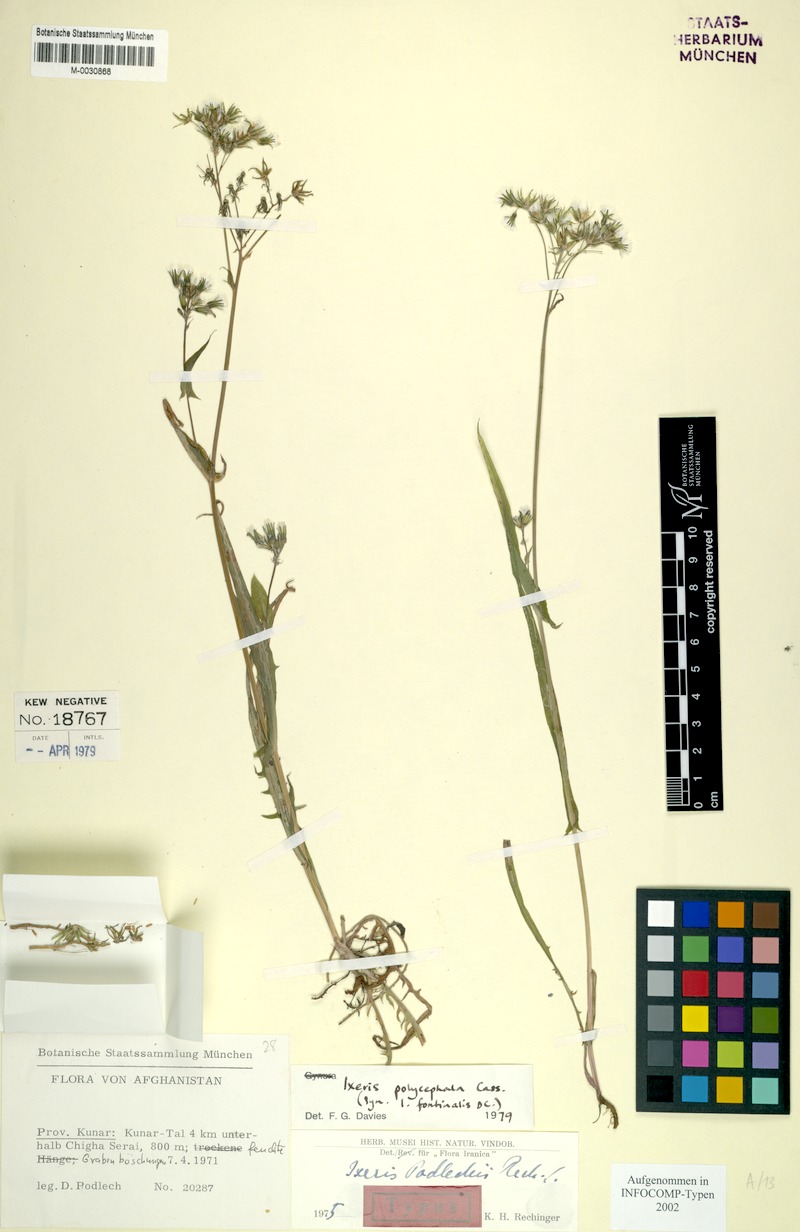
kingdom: Plantae
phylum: Tracheophyta
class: Magnoliopsida
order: Asterales
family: Asteraceae
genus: Ixeris
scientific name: Ixeris polycephala
